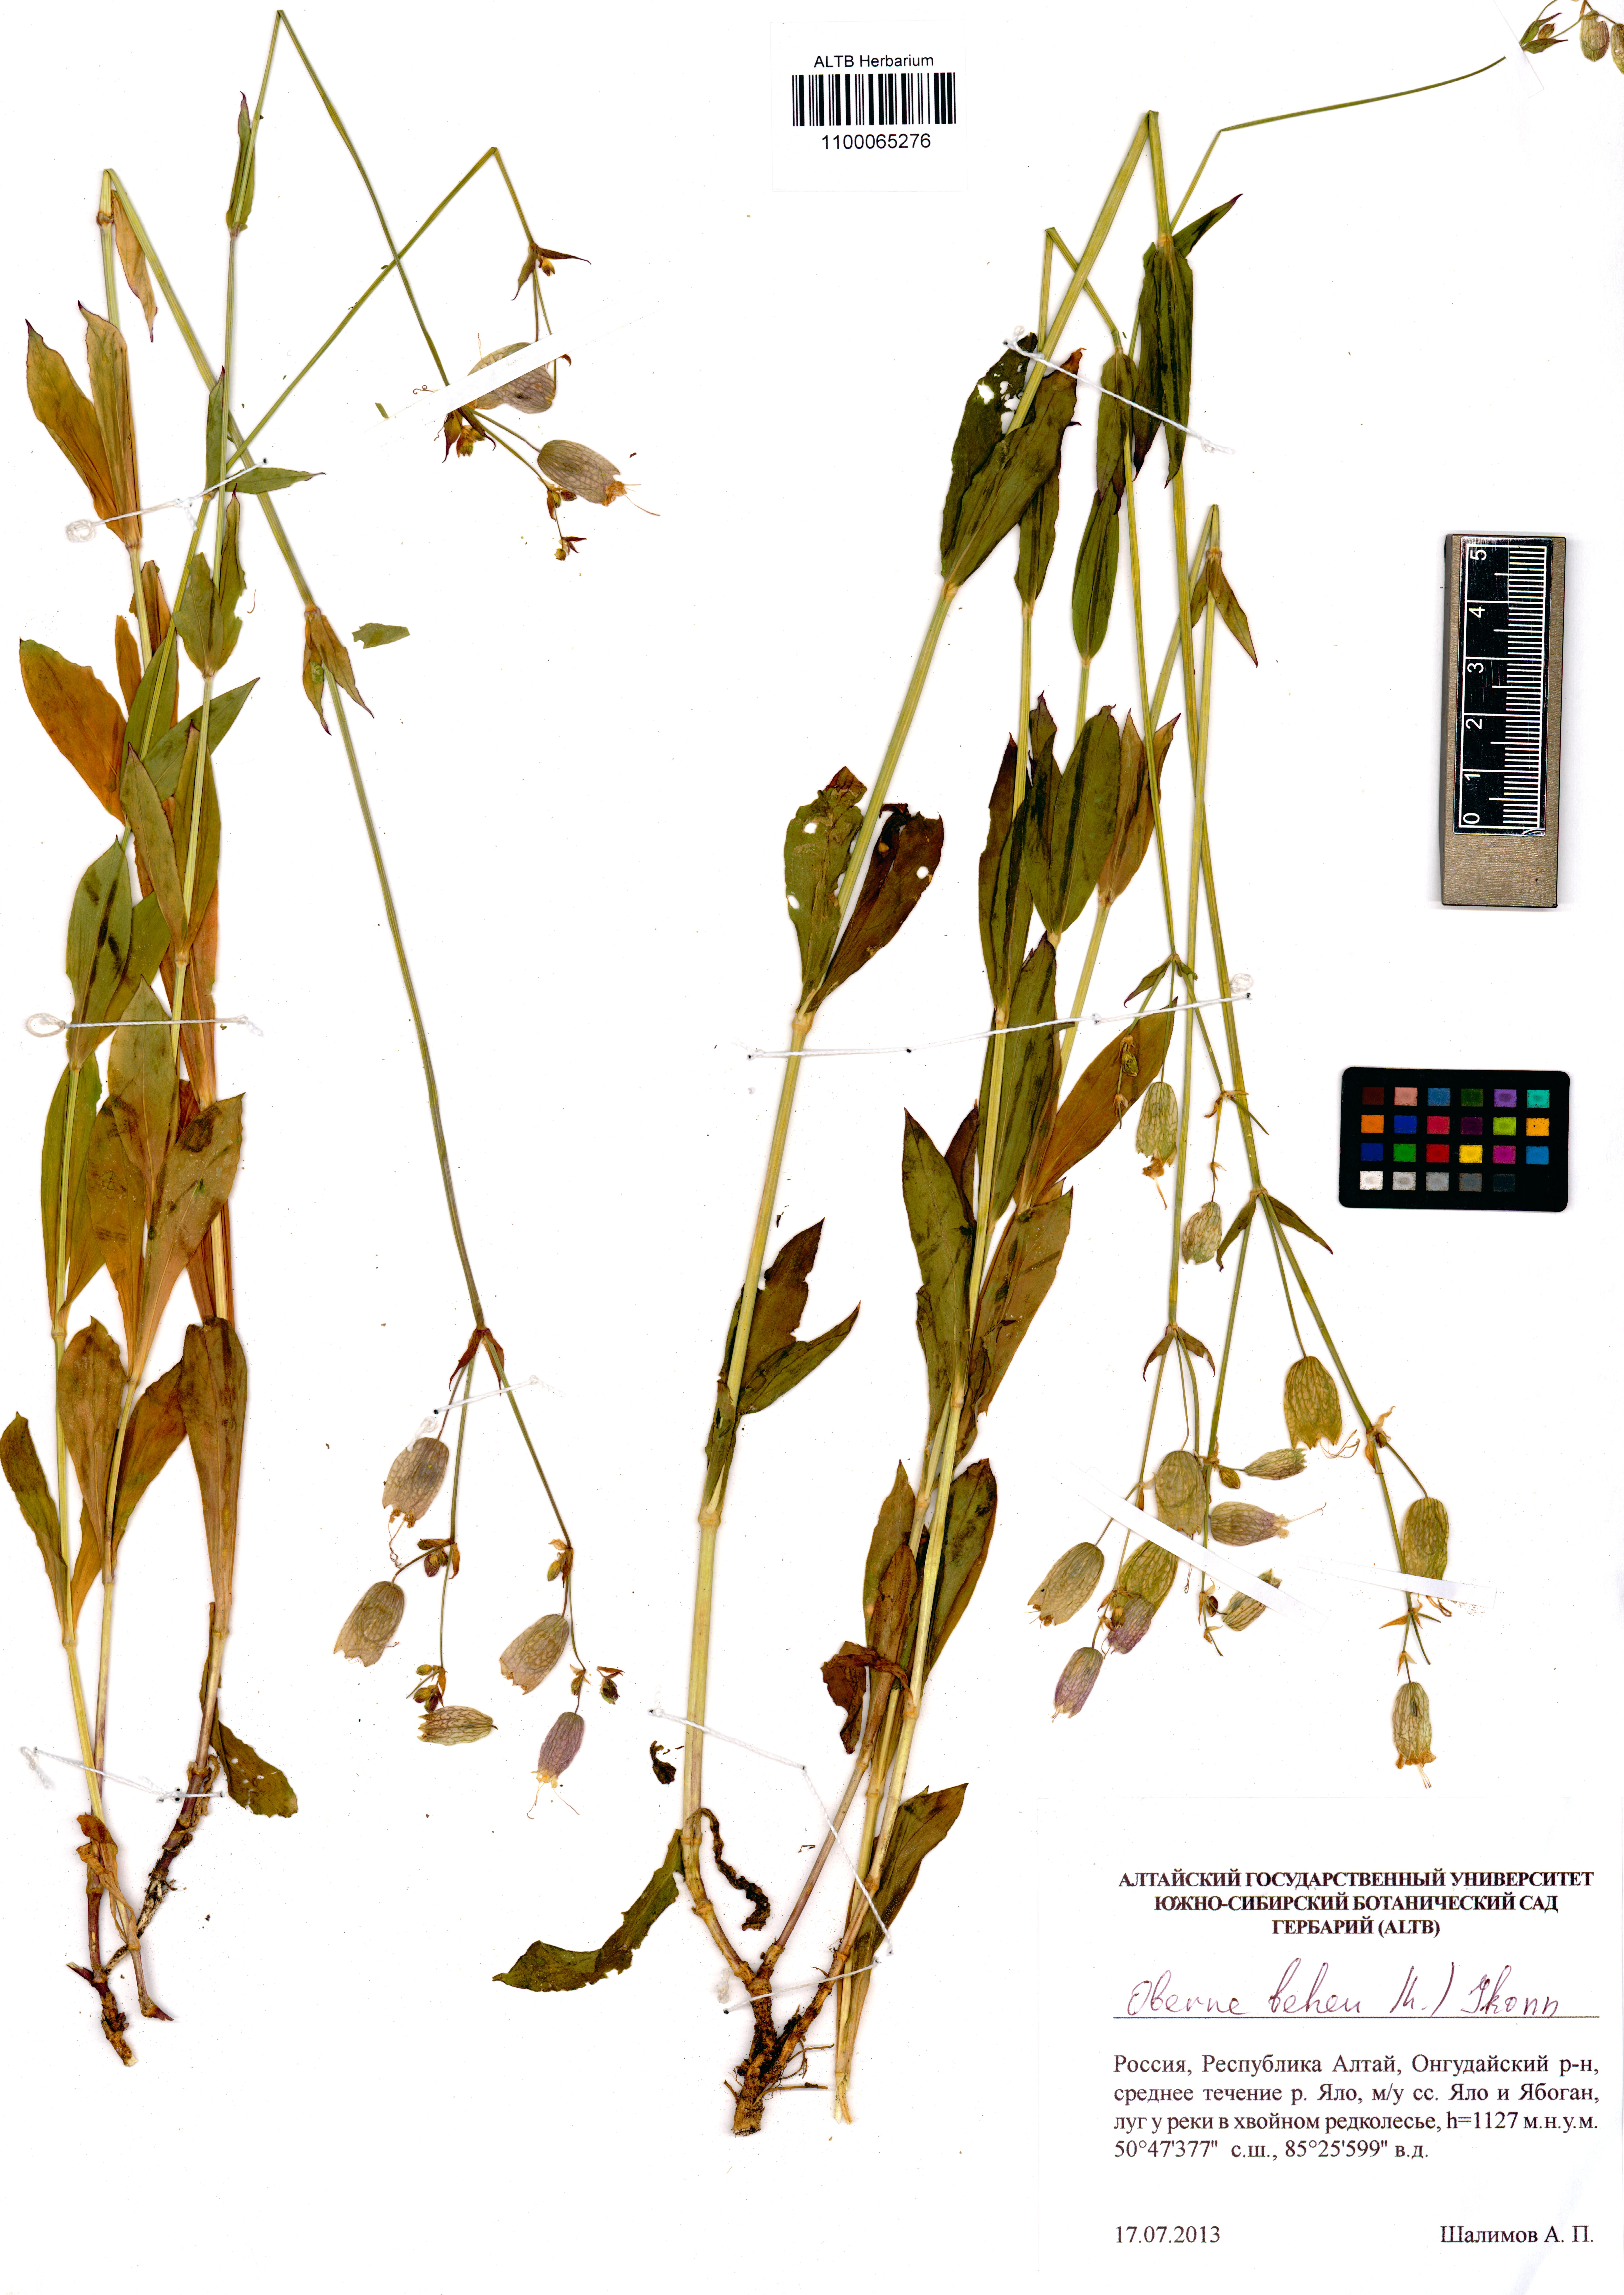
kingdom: Plantae
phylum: Tracheophyta
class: Magnoliopsida
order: Caryophyllales
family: Caryophyllaceae
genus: Silene
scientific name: Silene behen
